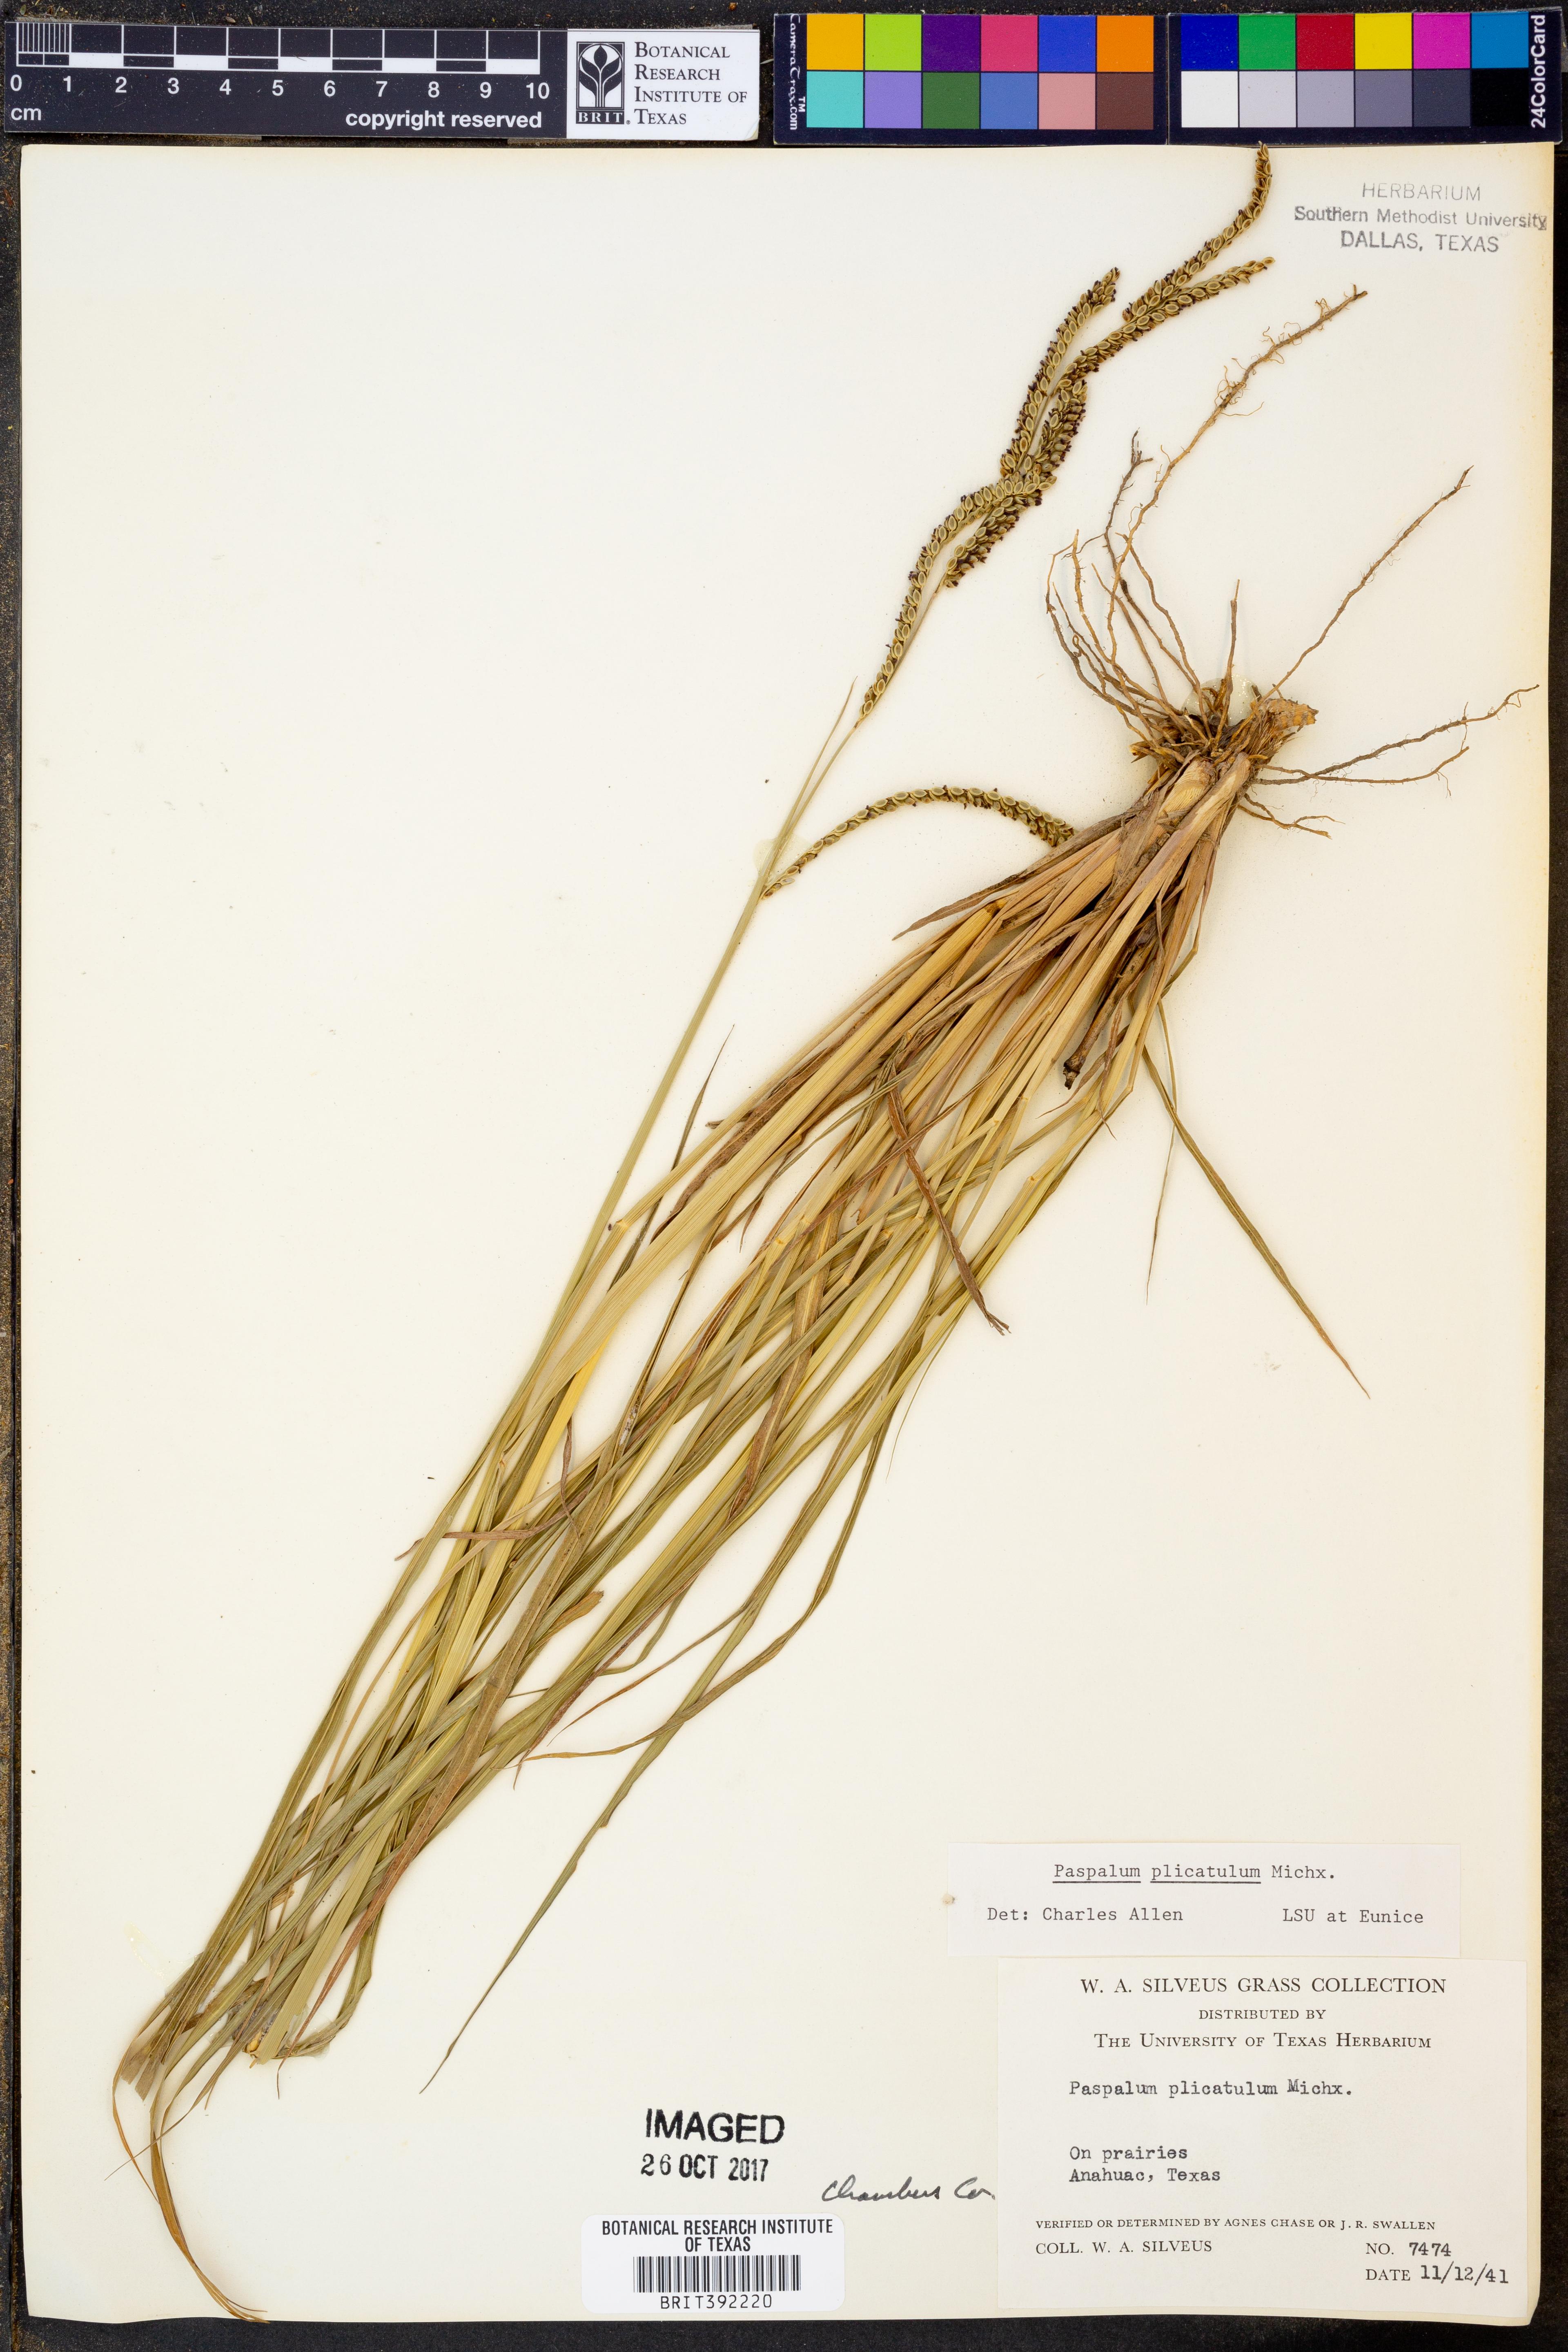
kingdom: Plantae
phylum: Tracheophyta
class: Liliopsida
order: Poales
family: Poaceae
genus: Paspalum
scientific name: Paspalum plicatulum
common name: Top paspalum
